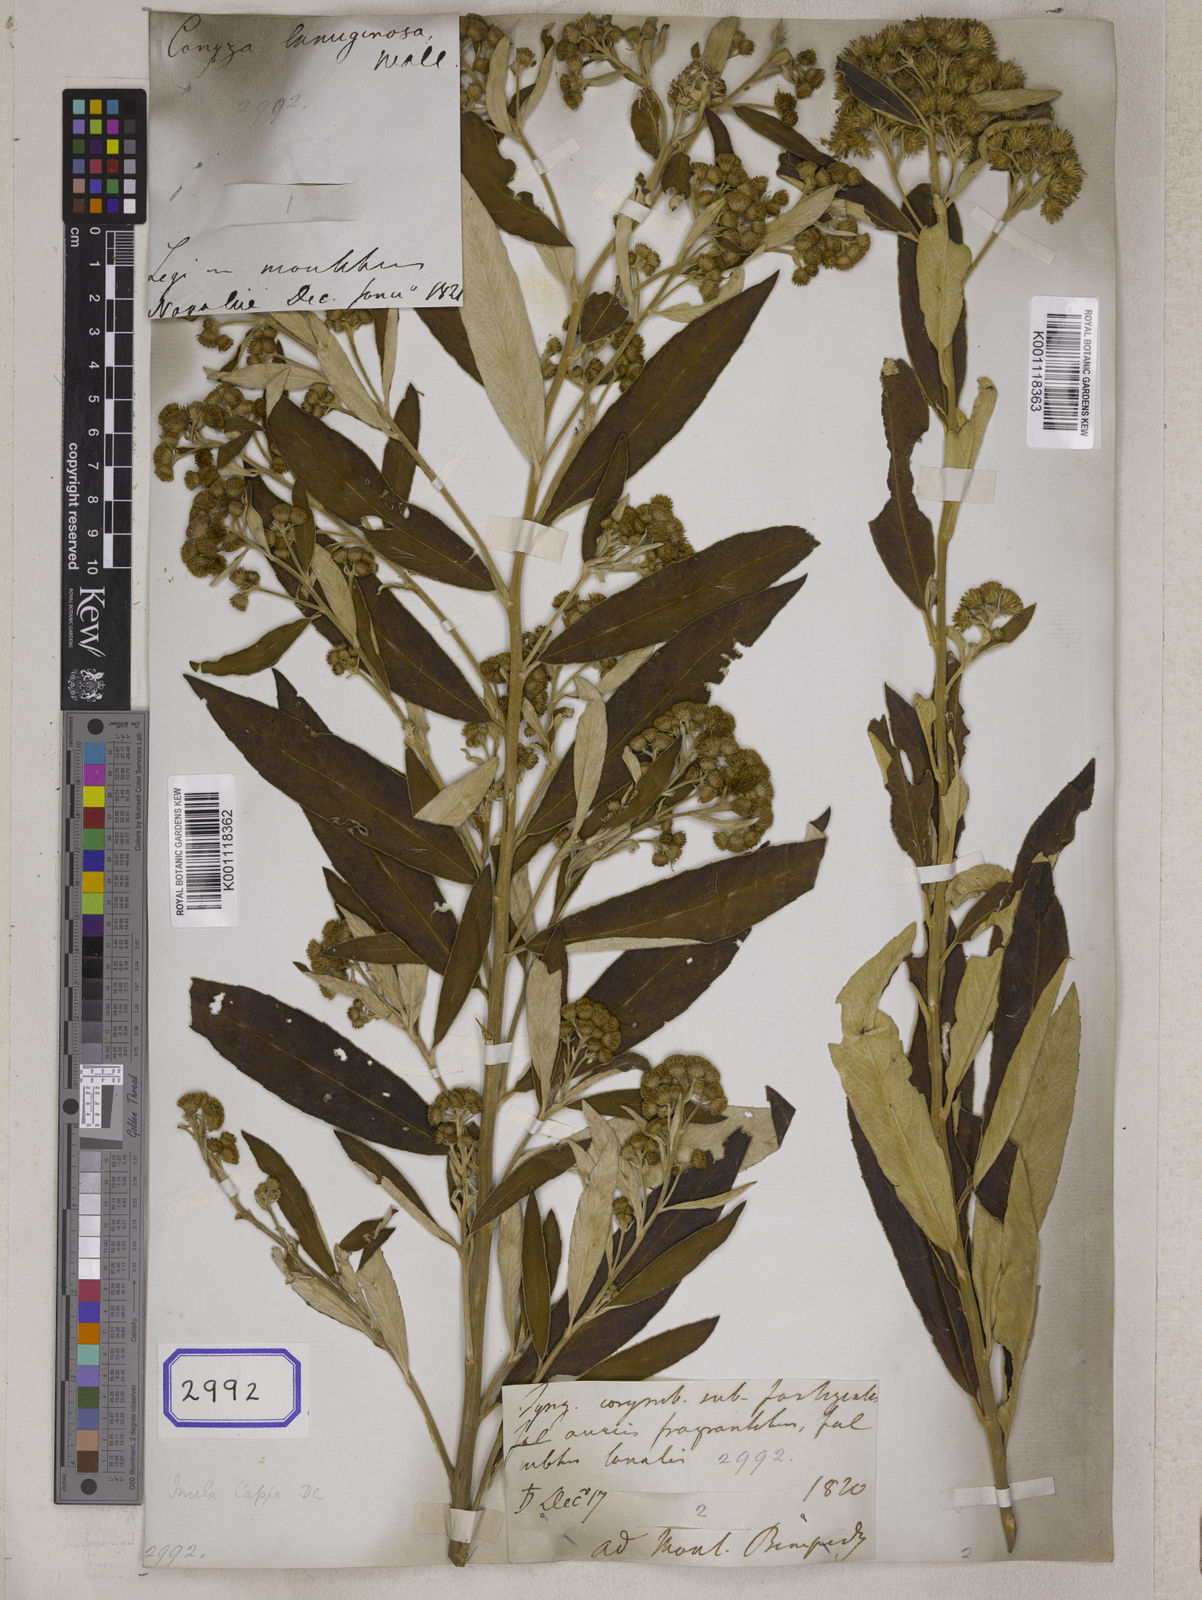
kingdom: Plantae
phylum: Tracheophyta
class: Magnoliopsida
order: Asterales
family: Asteraceae
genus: Duhaldea
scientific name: Duhaldea cappa
